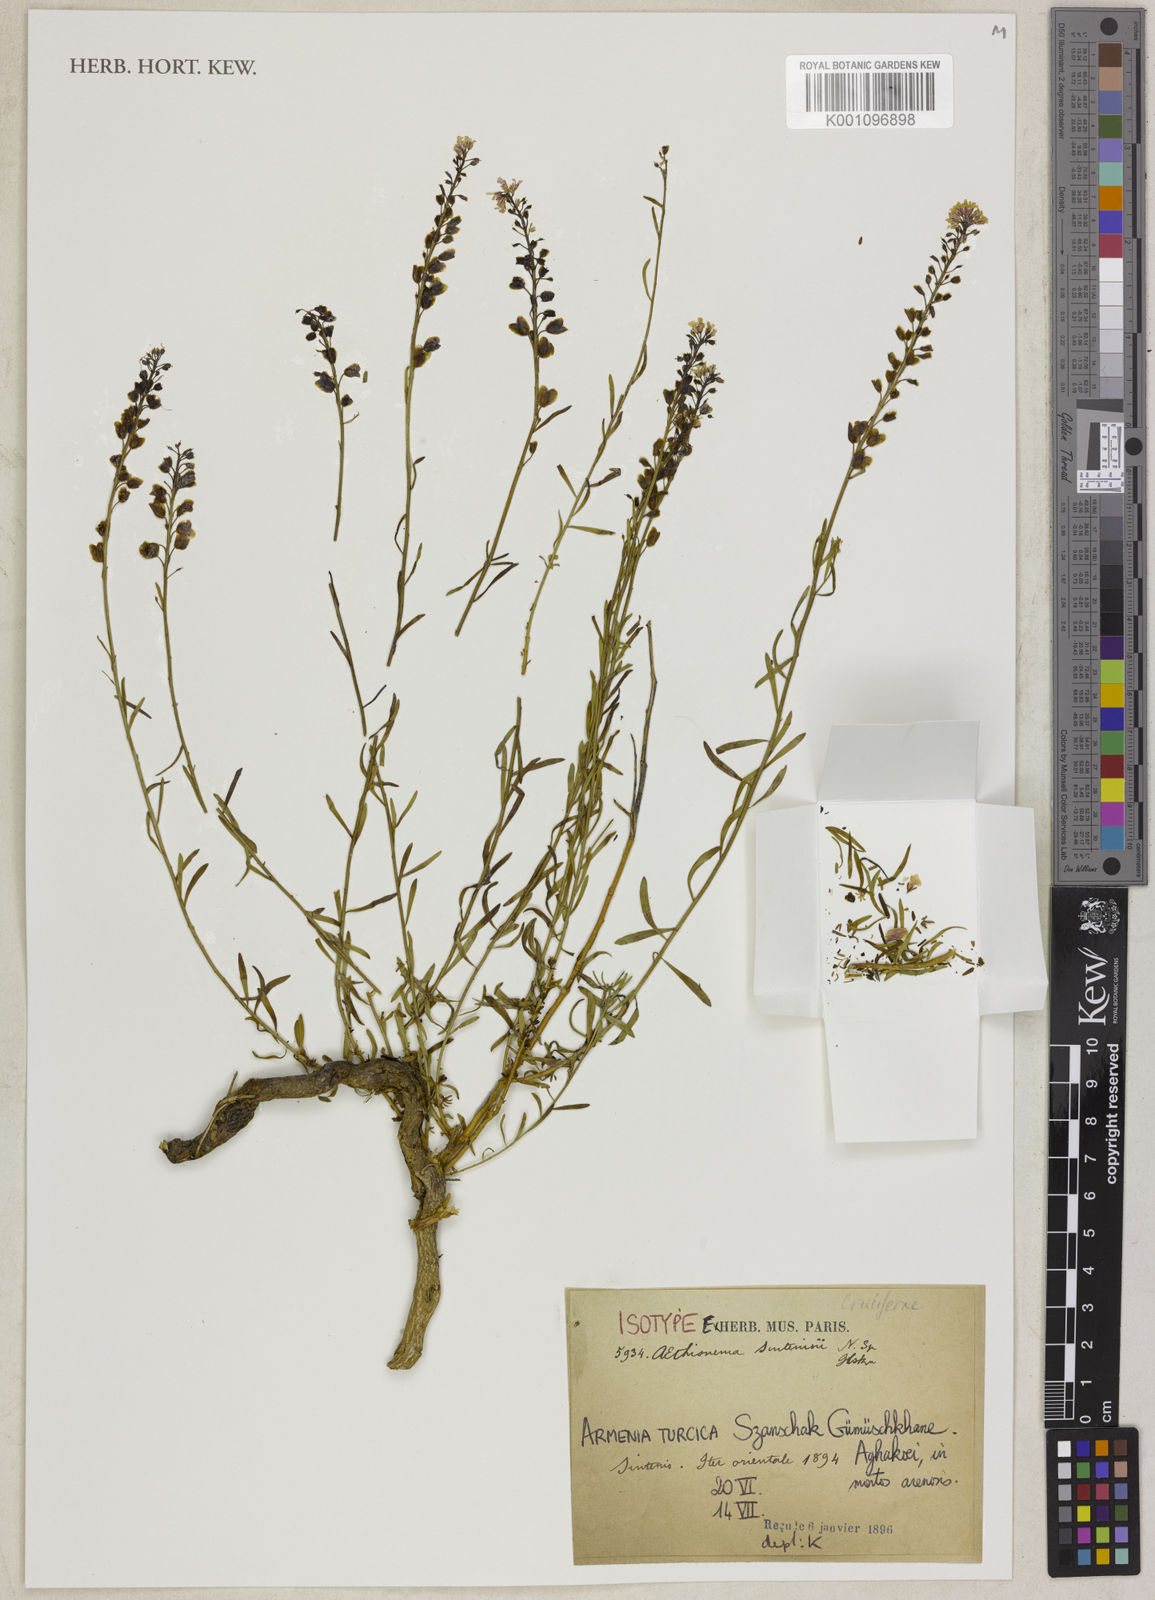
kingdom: Plantae
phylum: Tracheophyta
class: Magnoliopsida
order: Brassicales
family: Brassicaceae
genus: Aethionema
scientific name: Aethionema grandiflorum
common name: Persian stonecress
